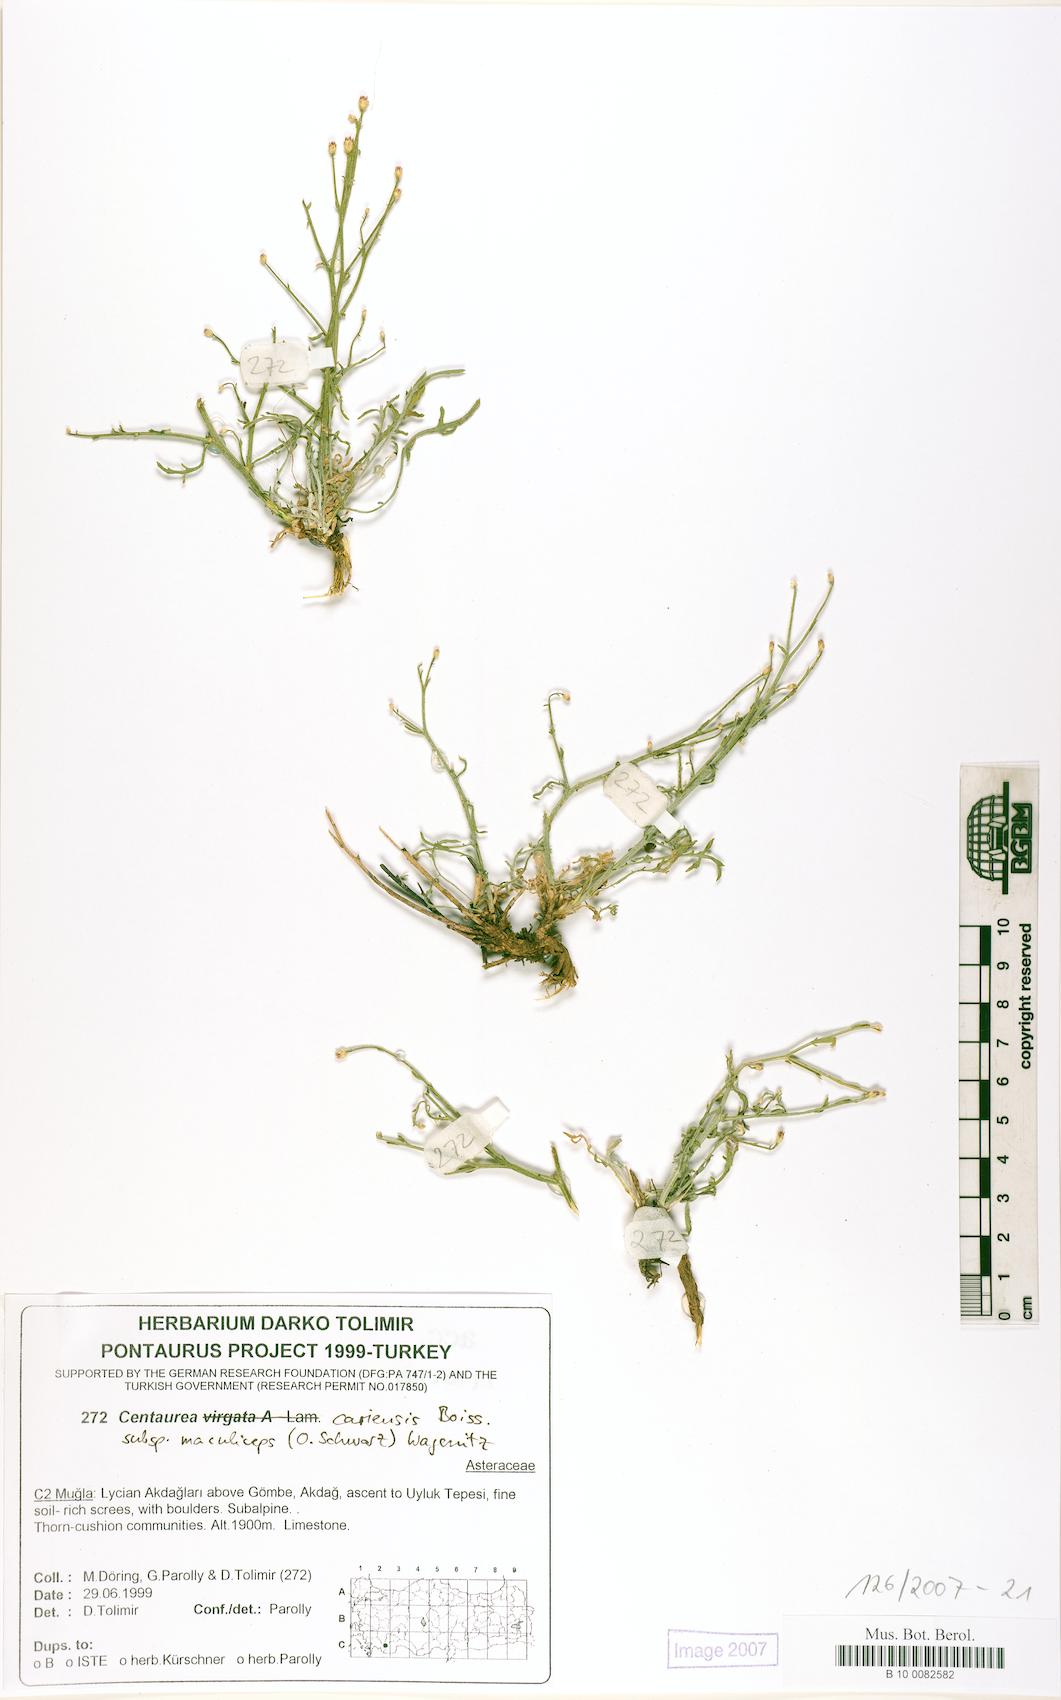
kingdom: Plantae
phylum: Tracheophyta
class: Magnoliopsida
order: Asterales
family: Asteraceae
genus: Centaurea
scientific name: Centaurea cariensis
